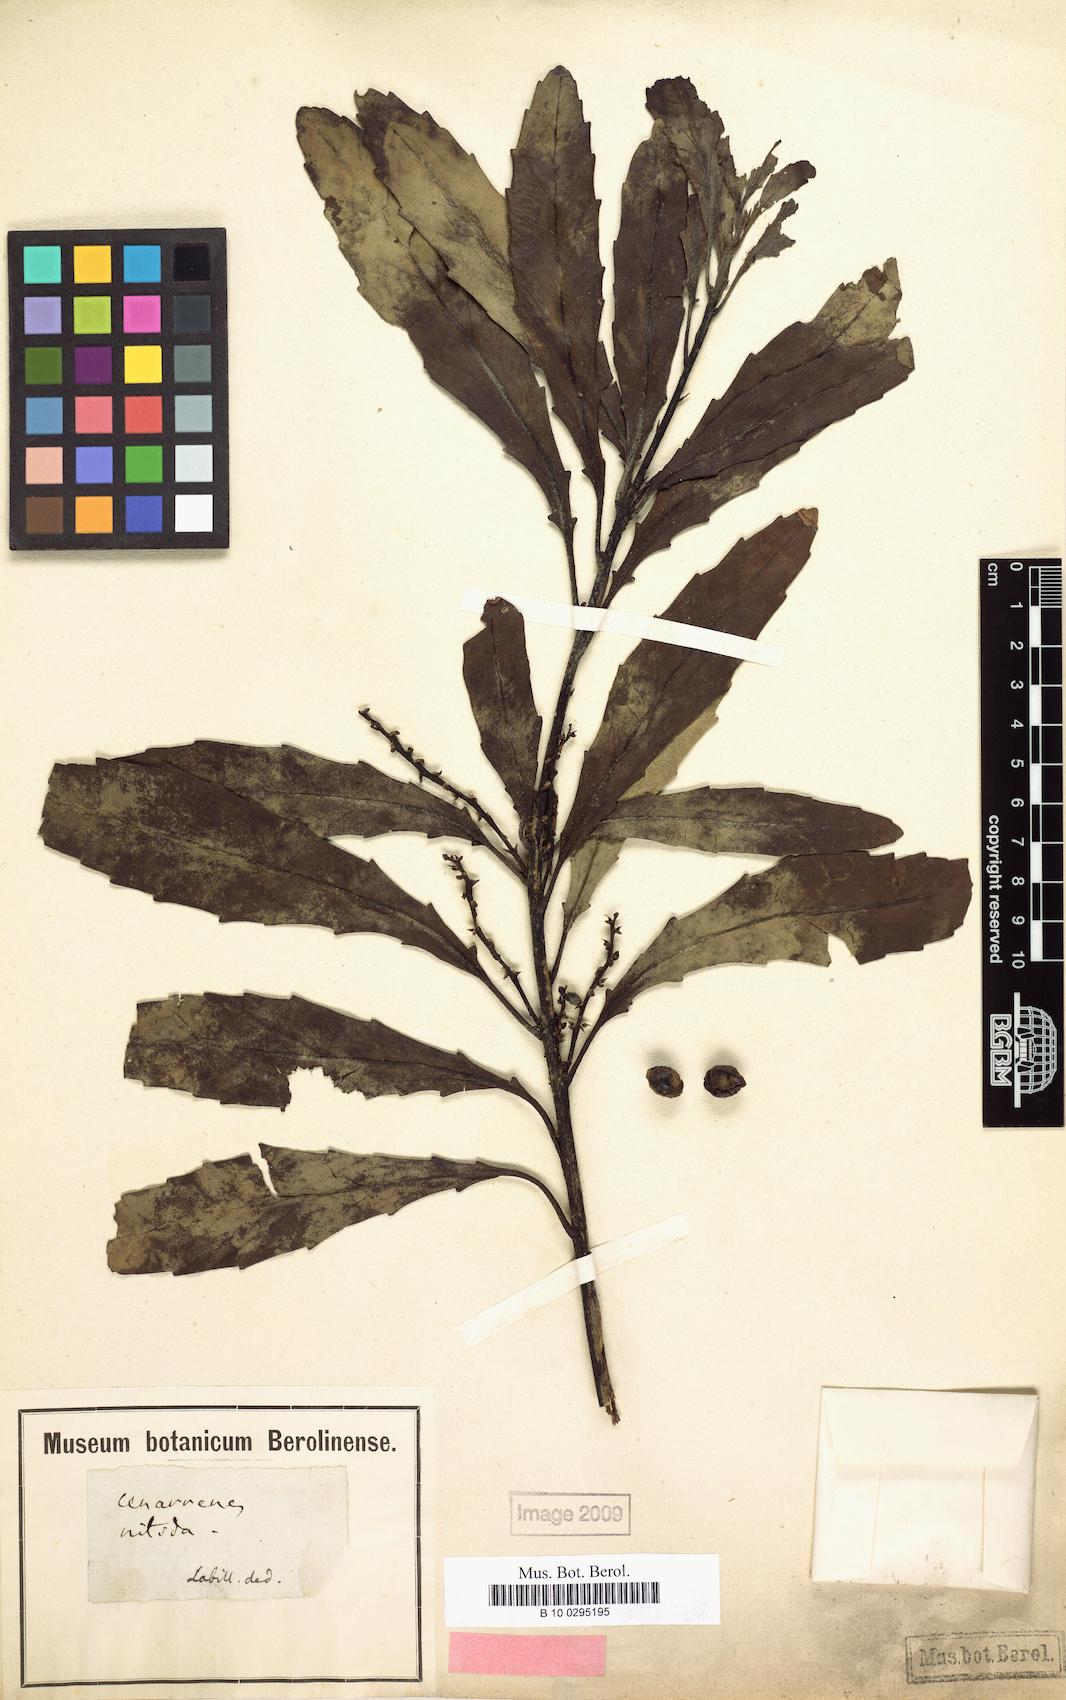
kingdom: Plantae
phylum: Tracheophyta
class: Magnoliopsida
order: Proteales
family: Proteaceae
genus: Cenarrhenes
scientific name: Cenarrhenes nitida
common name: Native plum
